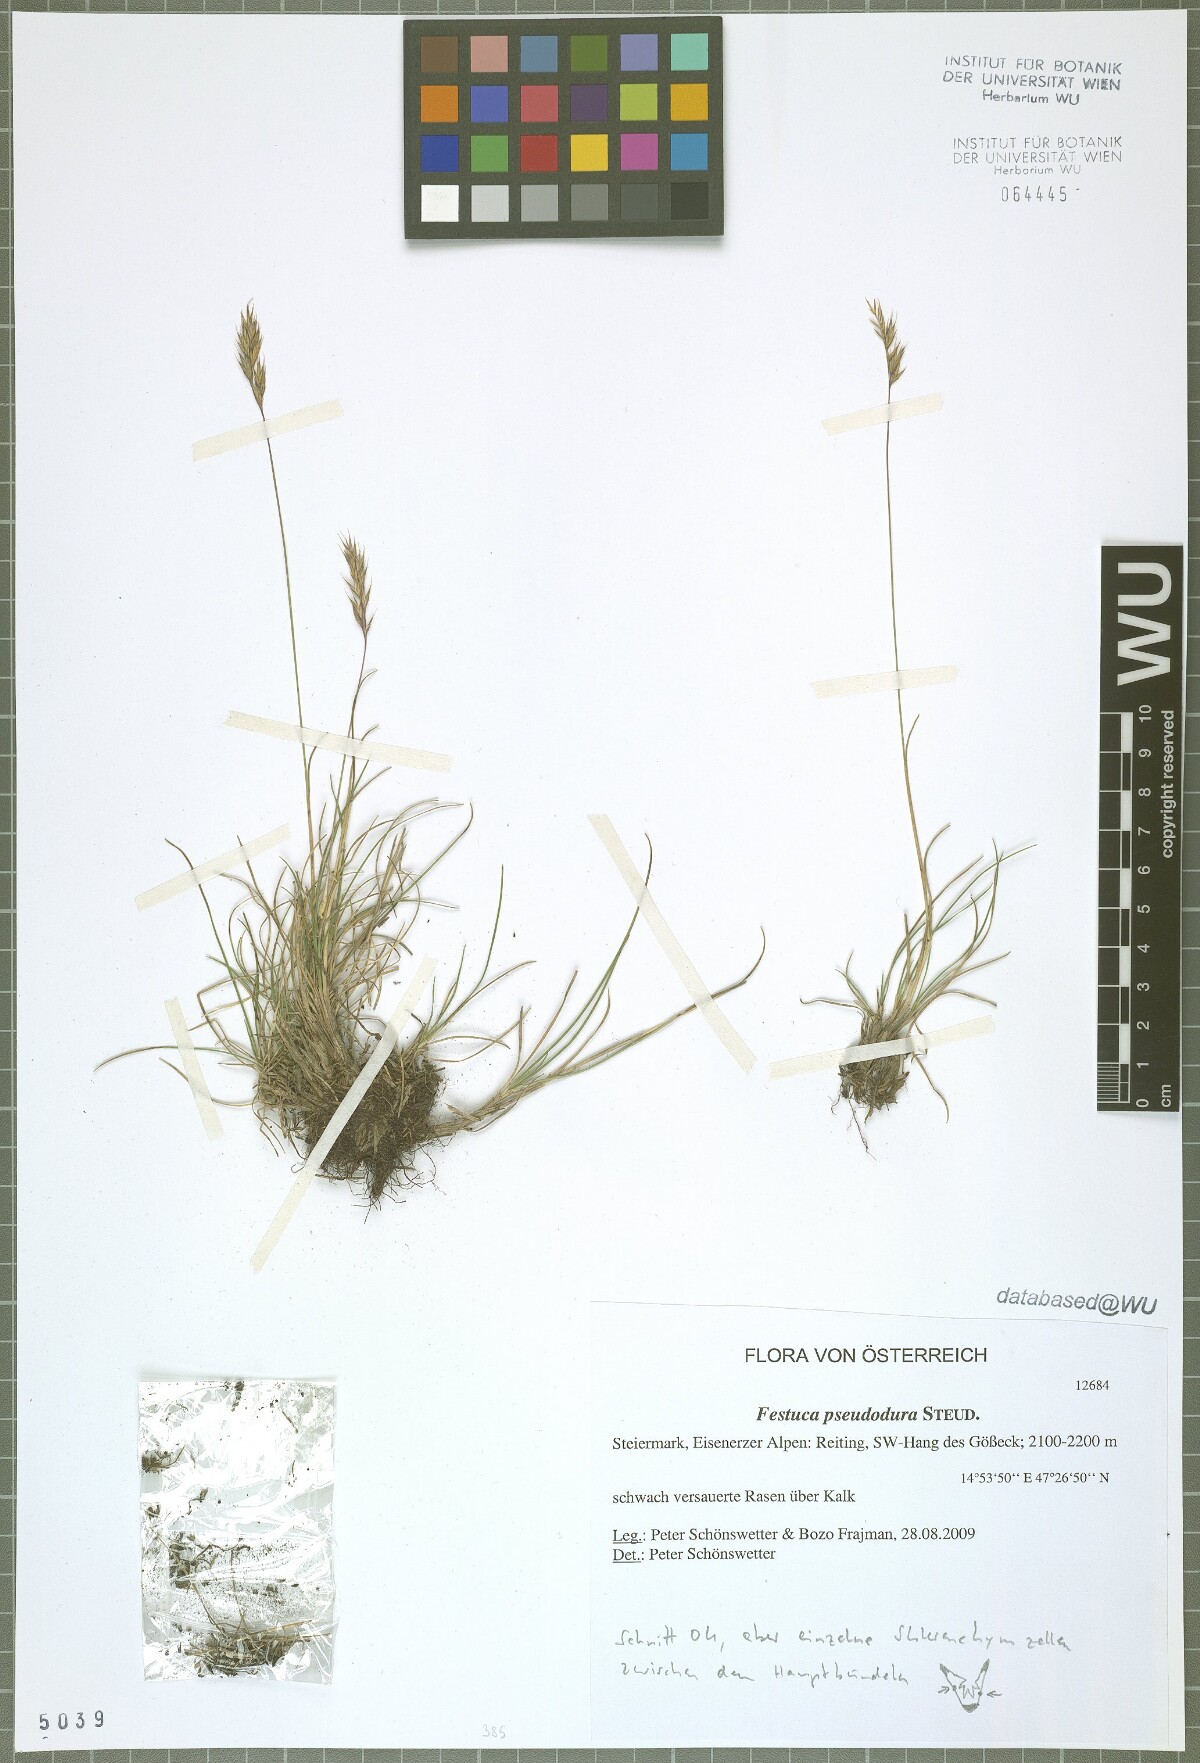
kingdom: Plantae
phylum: Tracheophyta
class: Liliopsida
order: Poales
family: Poaceae
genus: Festuca
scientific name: Festuca pseudodura
